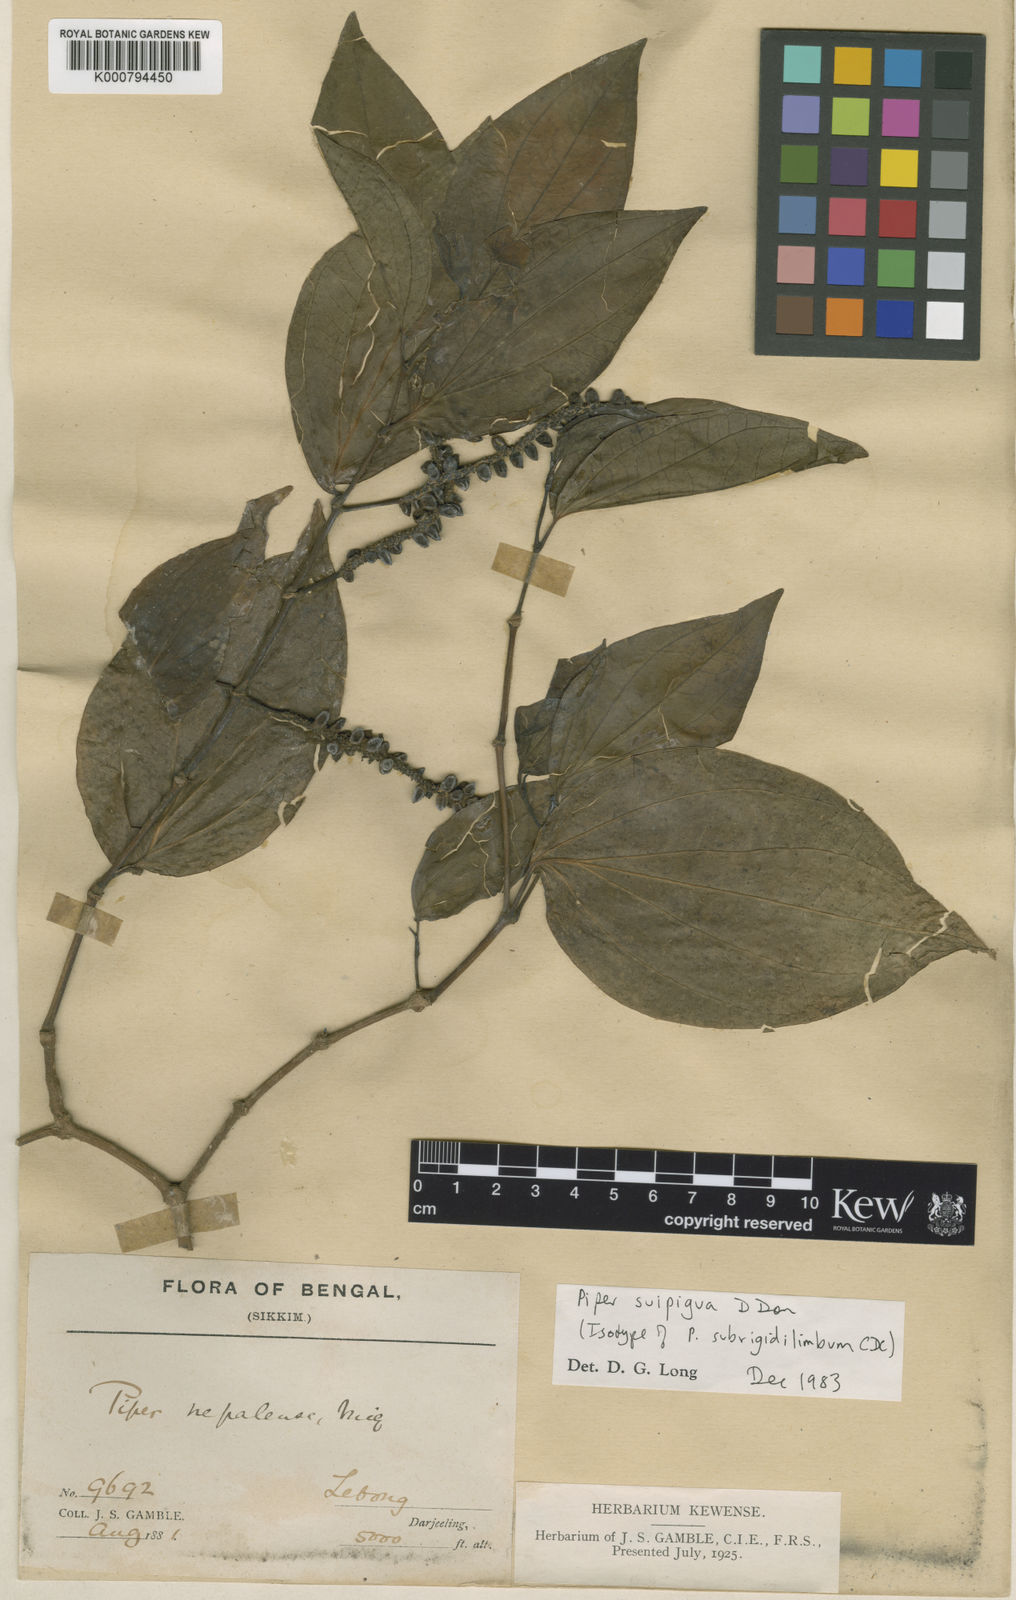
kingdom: Plantae
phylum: Tracheophyta
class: Magnoliopsida
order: Piperales
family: Piperaceae
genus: Piper
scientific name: Piper suipigua
